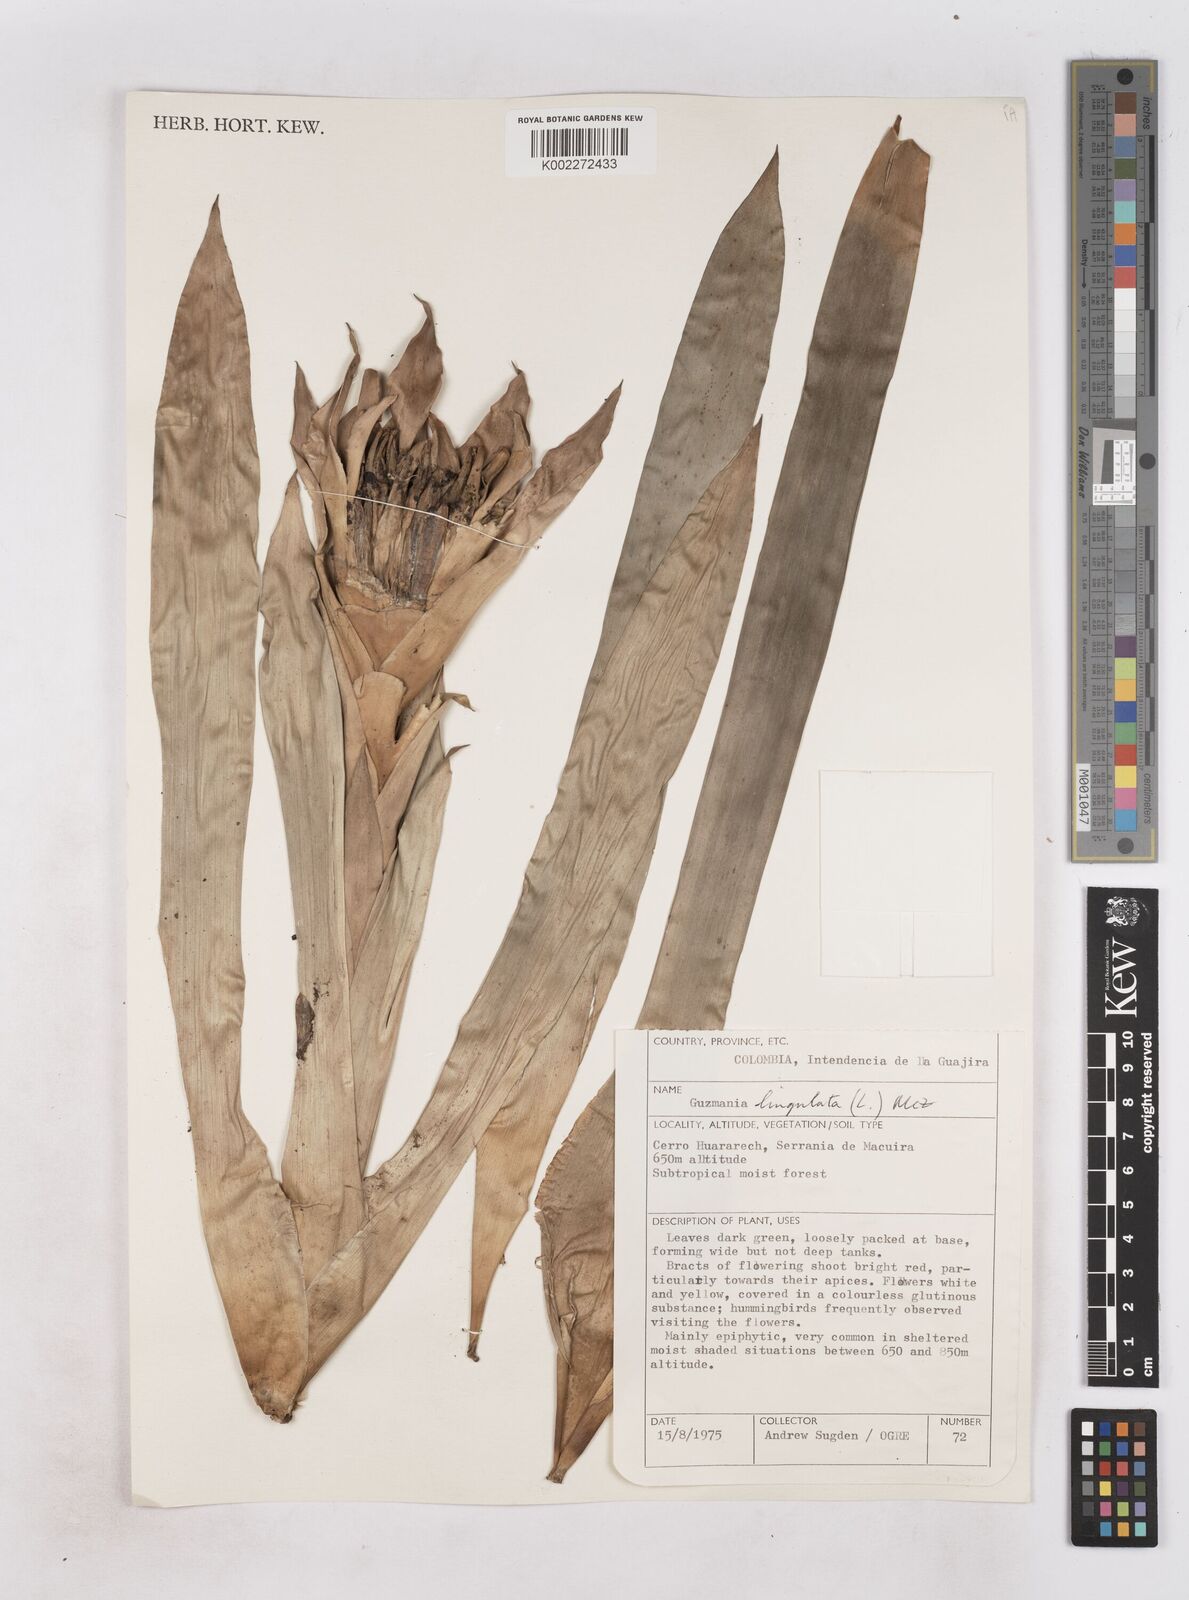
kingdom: Plantae
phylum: Tracheophyta
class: Liliopsida
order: Poales
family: Bromeliaceae
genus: Guzmania
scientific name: Guzmania lingulata
